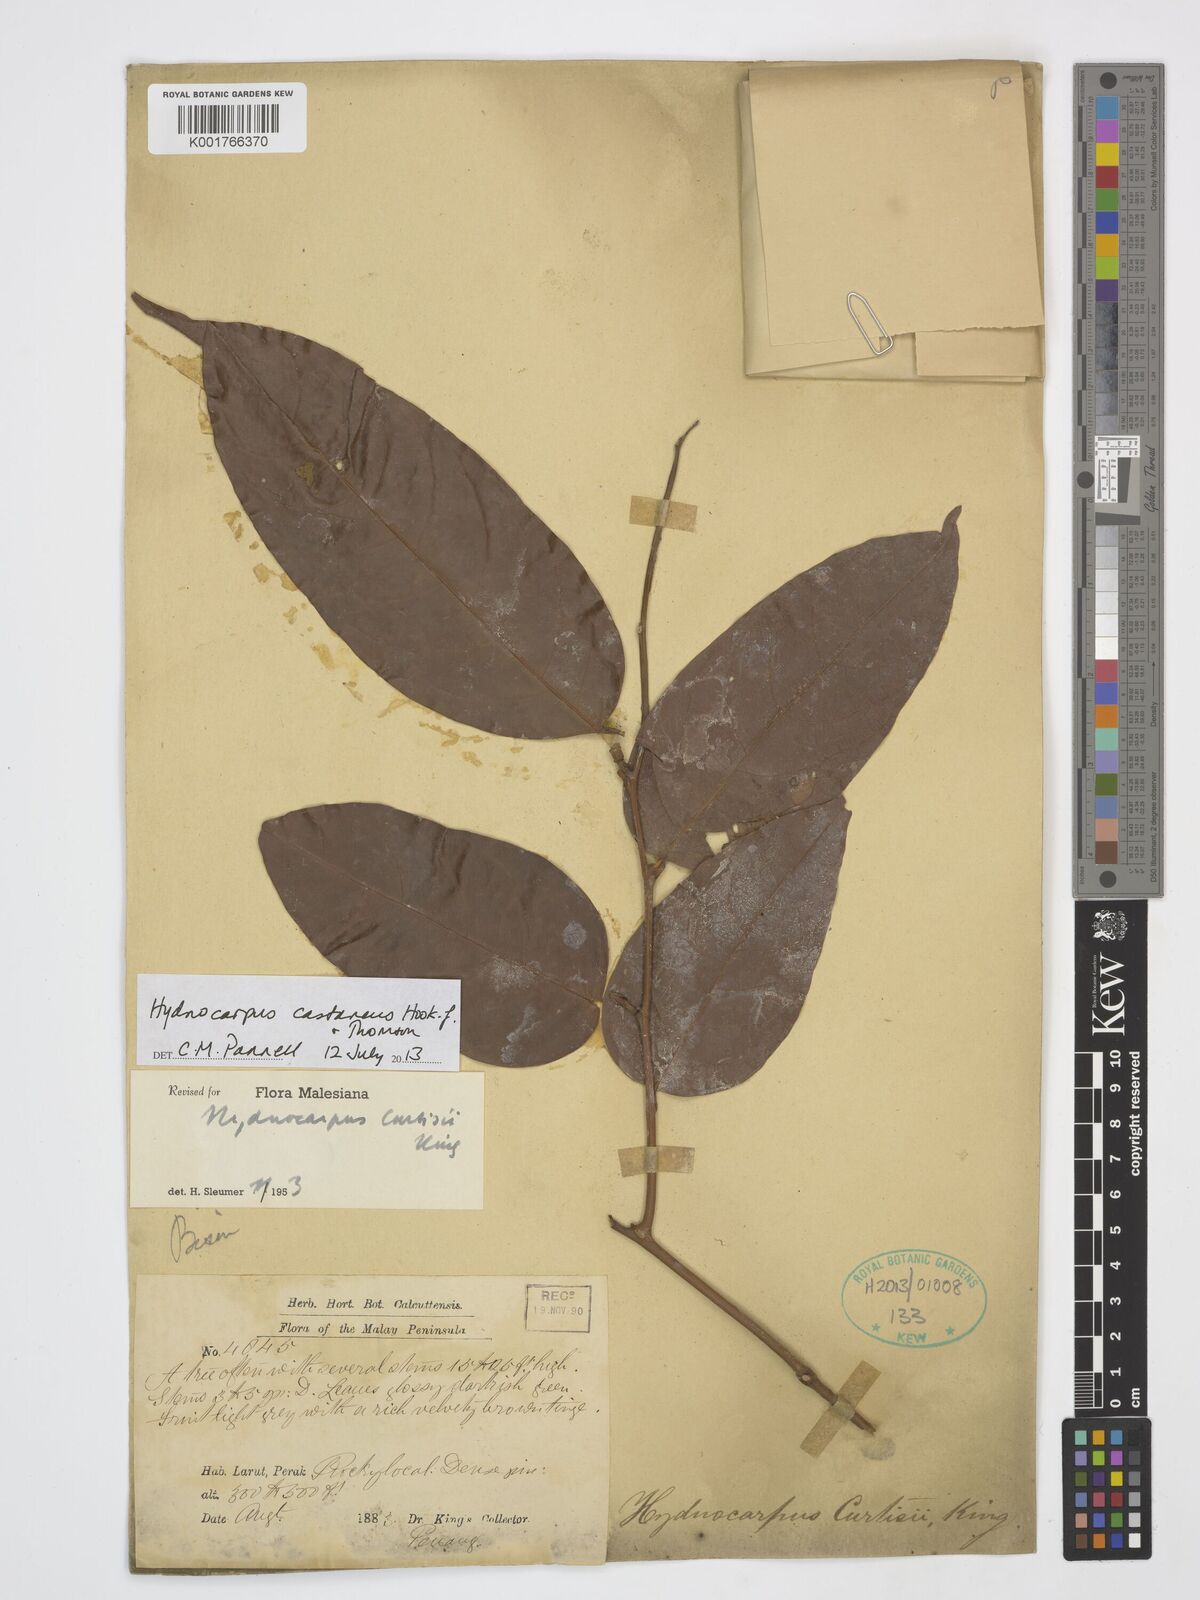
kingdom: Plantae
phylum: Tracheophyta
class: Magnoliopsida
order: Malpighiales
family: Achariaceae
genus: Hydnocarpus
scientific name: Hydnocarpus castaneus
